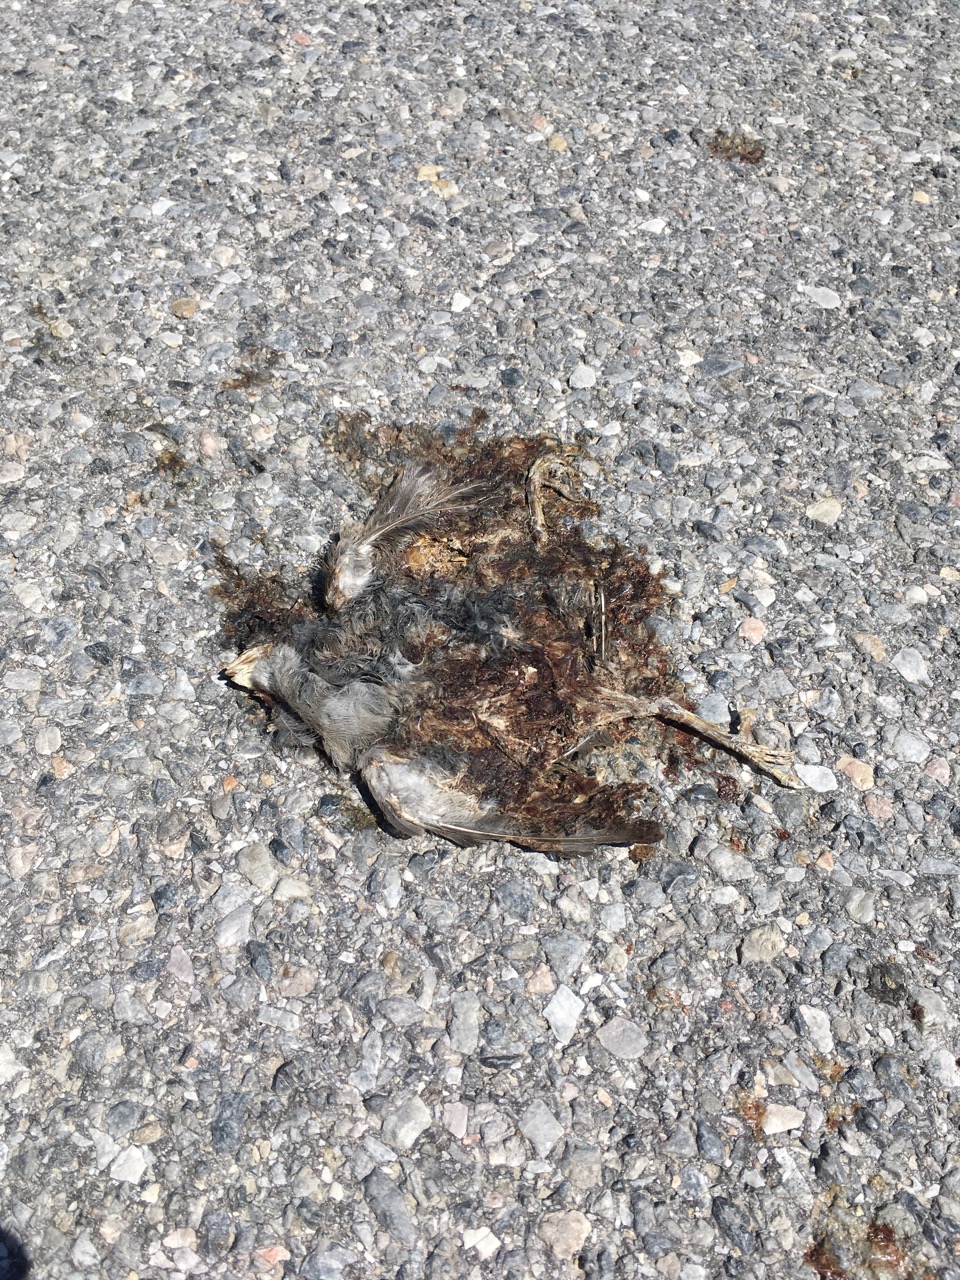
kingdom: Animalia
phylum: Chordata
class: Aves
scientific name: Aves
